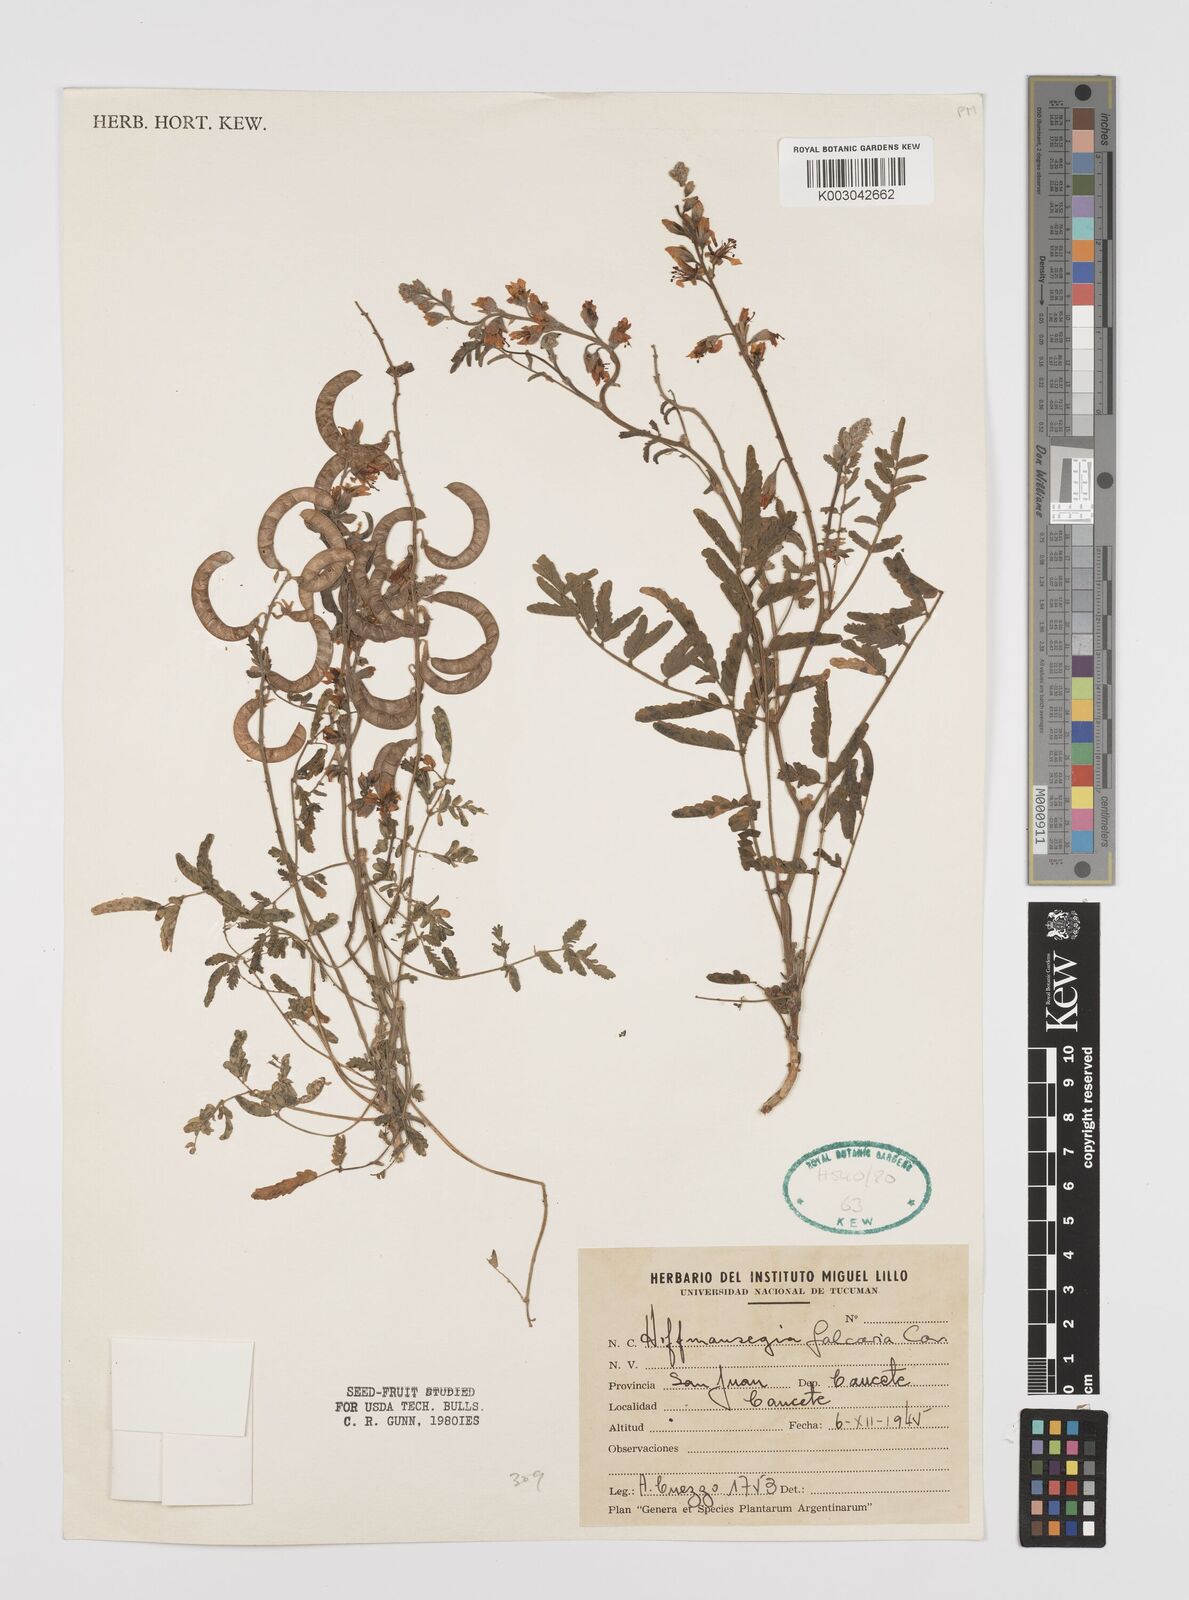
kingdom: Plantae
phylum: Tracheophyta
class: Magnoliopsida
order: Fabales
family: Fabaceae
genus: Hoffmannseggia
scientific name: Hoffmannseggia glauca
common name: Pignut
